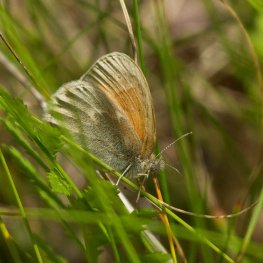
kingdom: Animalia
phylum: Arthropoda
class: Insecta
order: Lepidoptera
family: Nymphalidae
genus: Coenonympha
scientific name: Coenonympha tullia
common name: Large Heath
